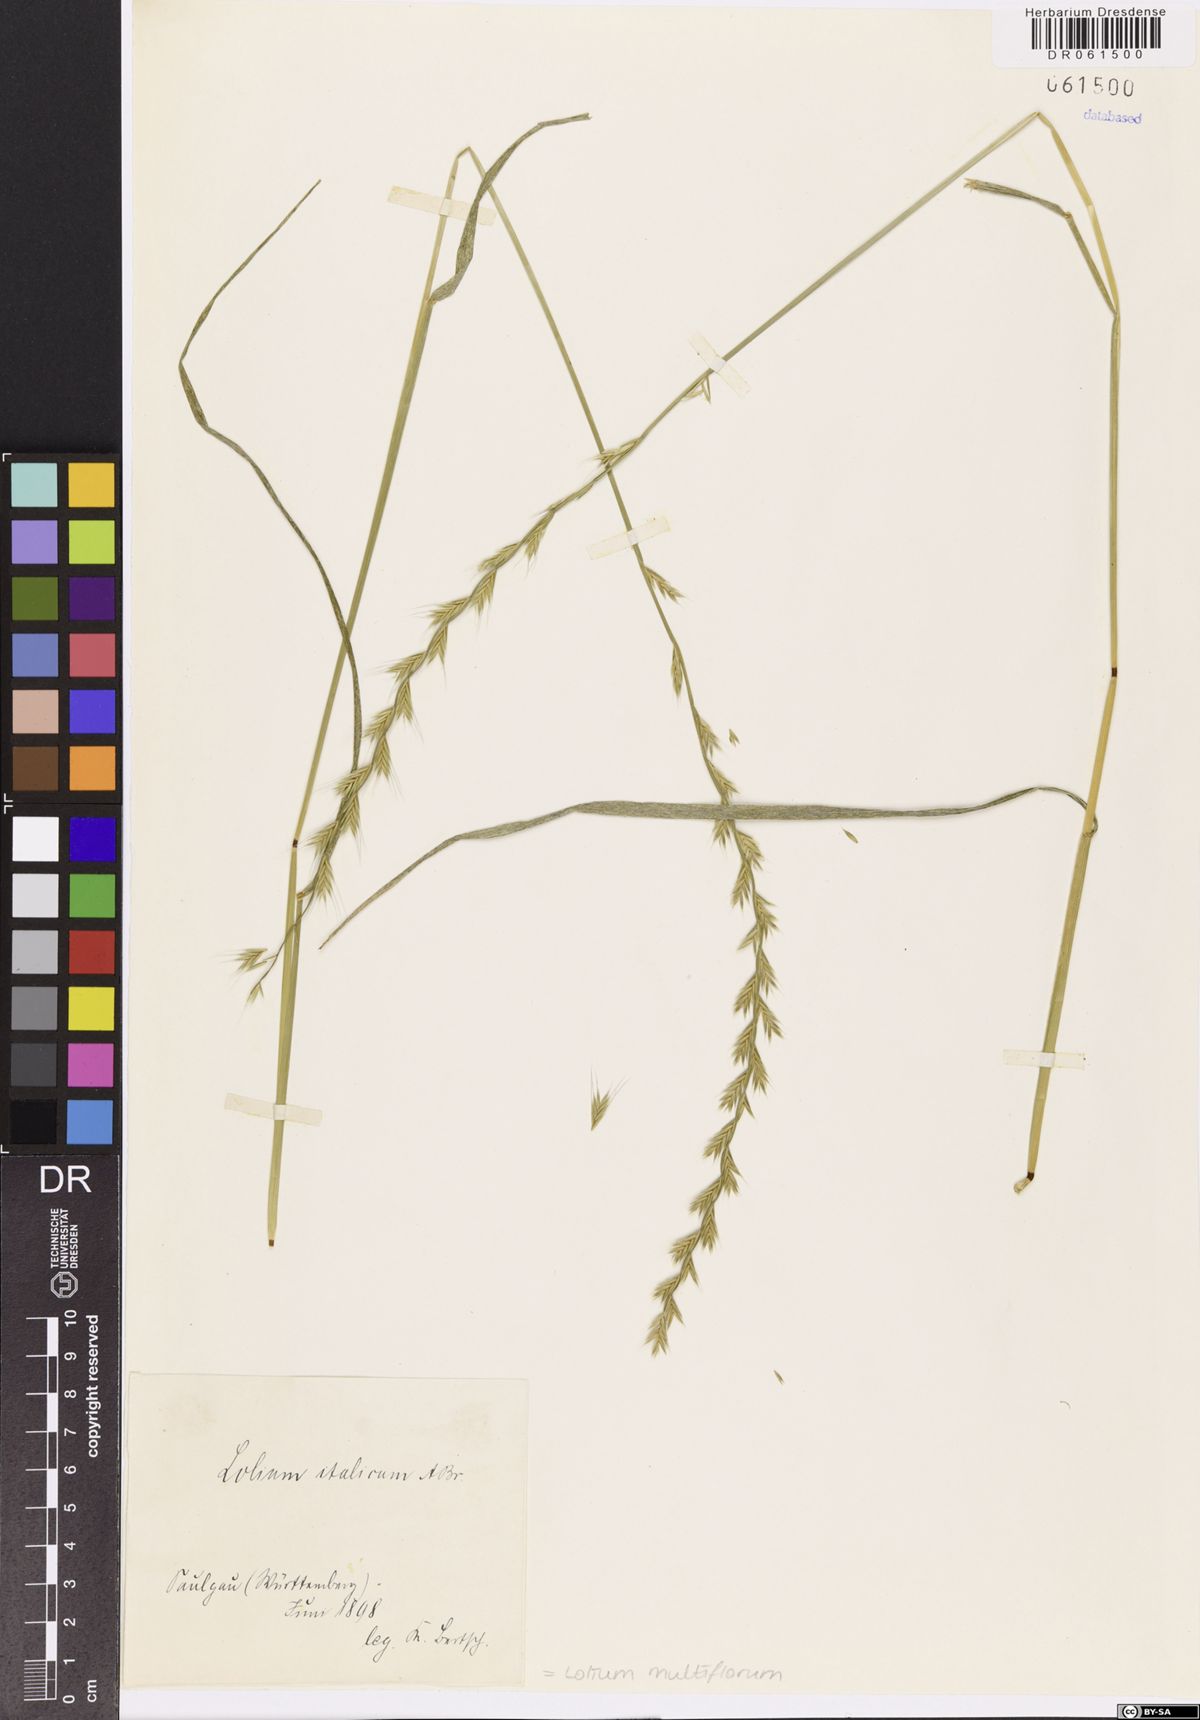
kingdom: Plantae
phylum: Tracheophyta
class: Liliopsida
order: Poales
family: Poaceae
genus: Lolium
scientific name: Lolium multiflorum
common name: Annual ryegrass
